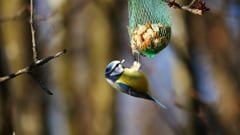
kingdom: Animalia
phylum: Chordata
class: Aves
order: Passeriformes
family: Paridae
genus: Cyanistes
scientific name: Cyanistes caeruleus
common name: Eurasian blue tit
